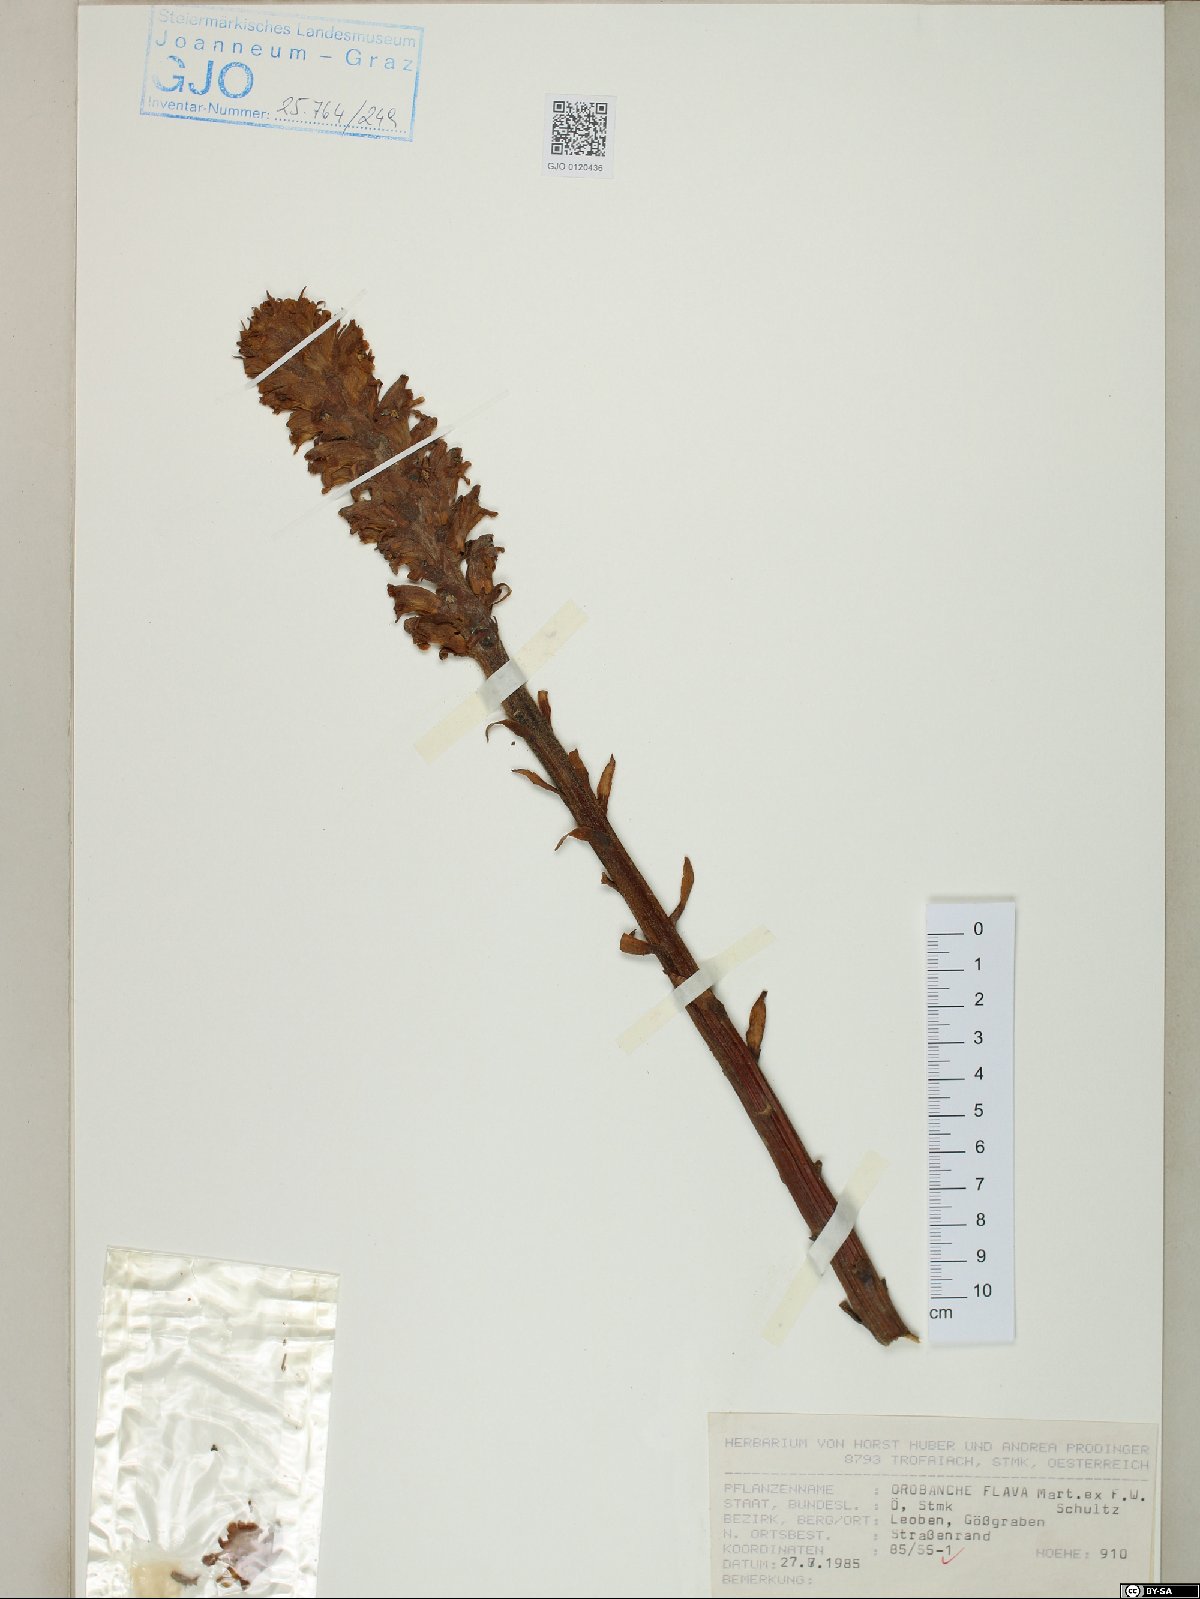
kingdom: Plantae
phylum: Tracheophyta
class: Magnoliopsida
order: Lamiales
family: Orobanchaceae
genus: Orobanche
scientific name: Orobanche flava
